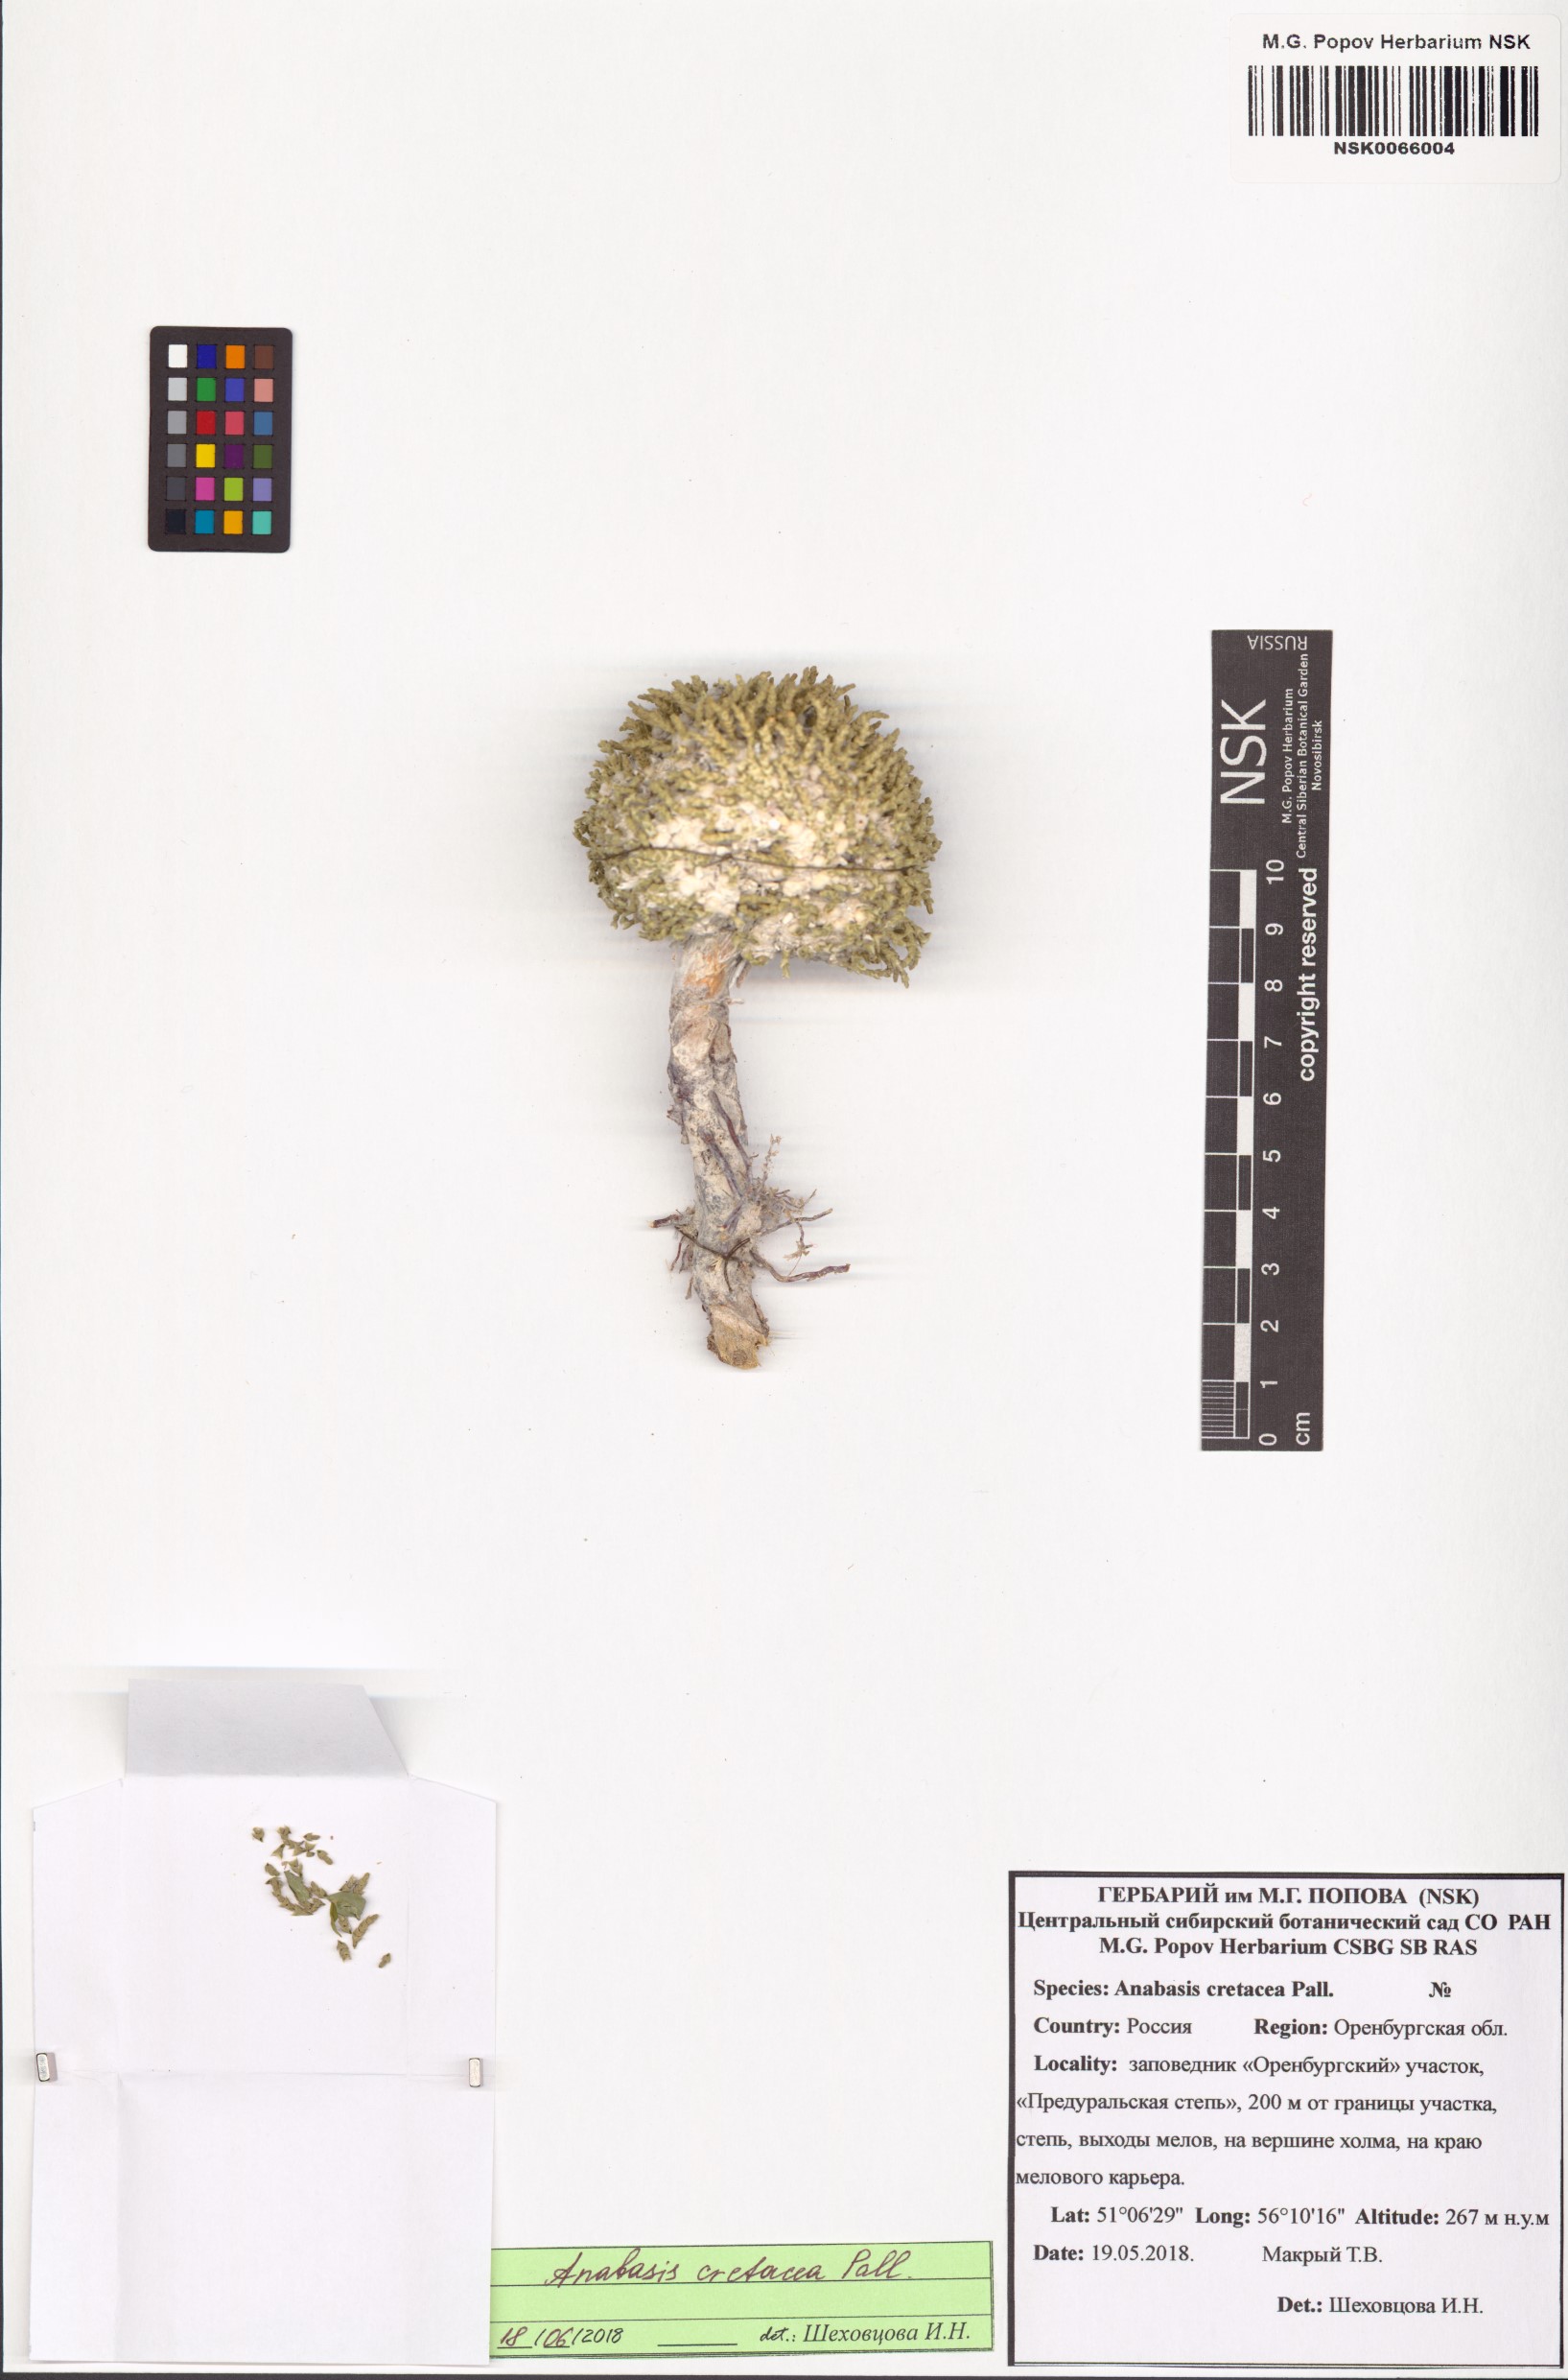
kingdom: Plantae
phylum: Tracheophyta
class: Magnoliopsida
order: Caryophyllales
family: Amaranthaceae
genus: Anabasis
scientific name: Anabasis cretacea
